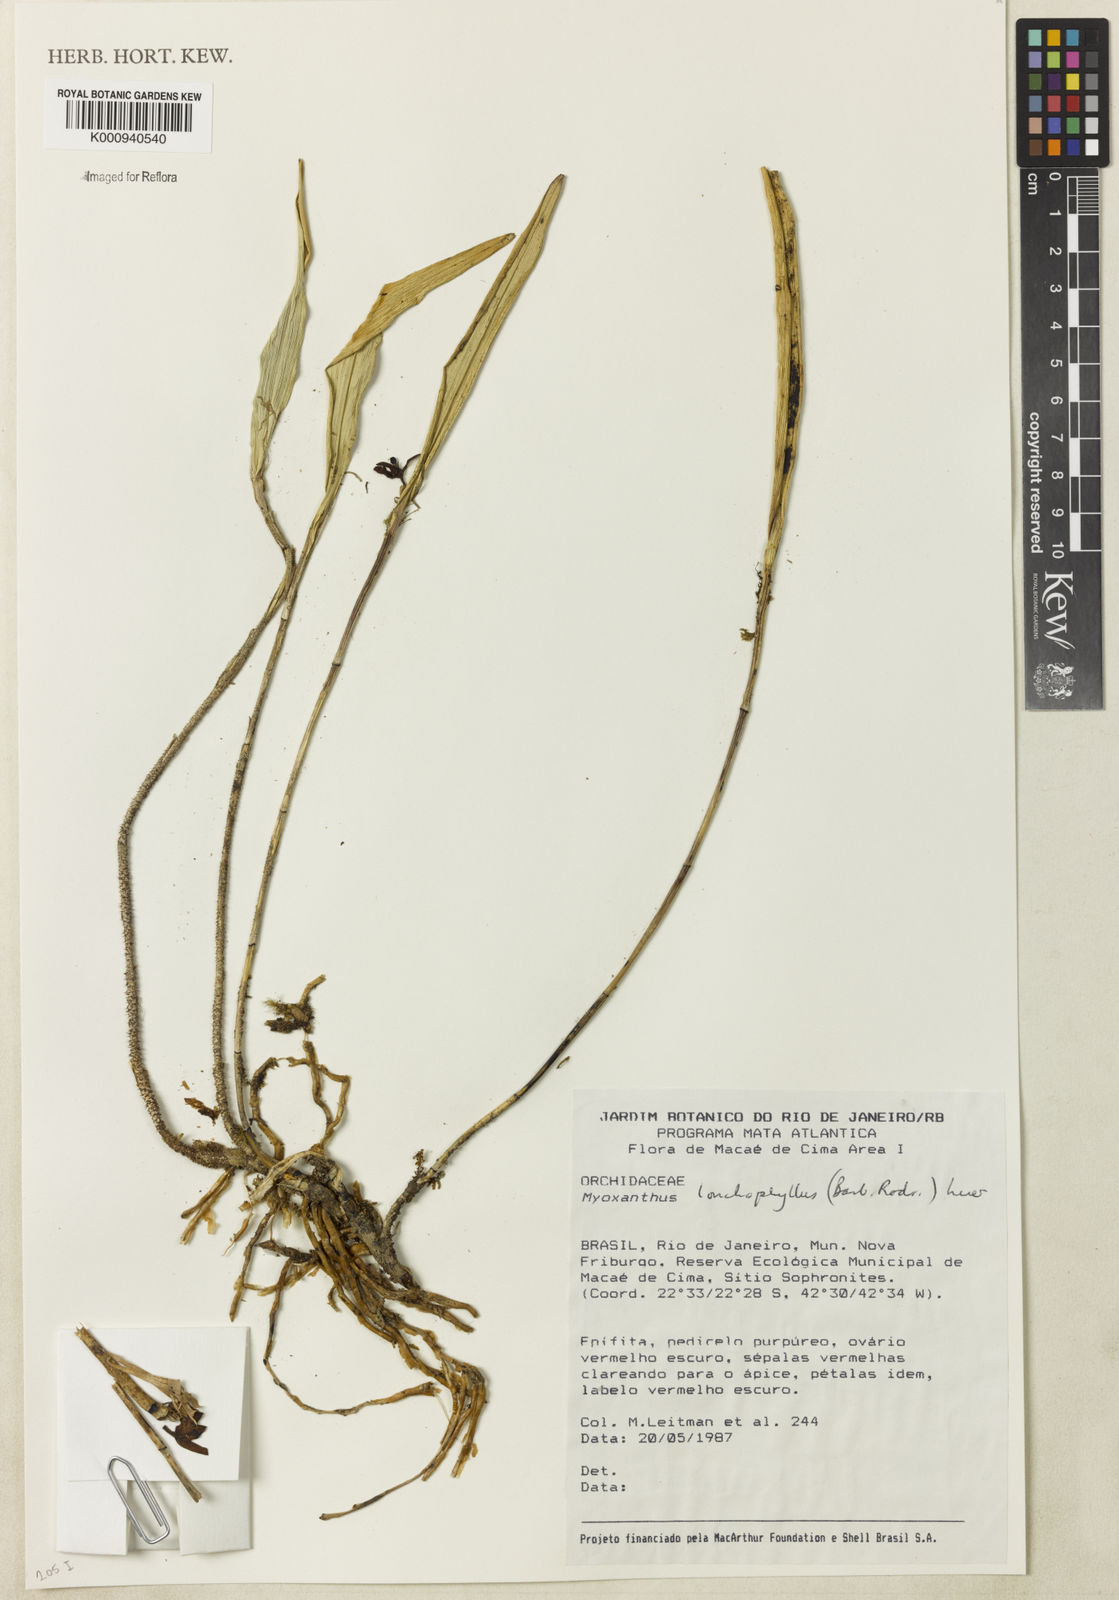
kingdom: Plantae
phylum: Tracheophyta
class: Liliopsida
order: Asparagales
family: Orchidaceae
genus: Myoxanthus
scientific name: Myoxanthus lonchophyllus
